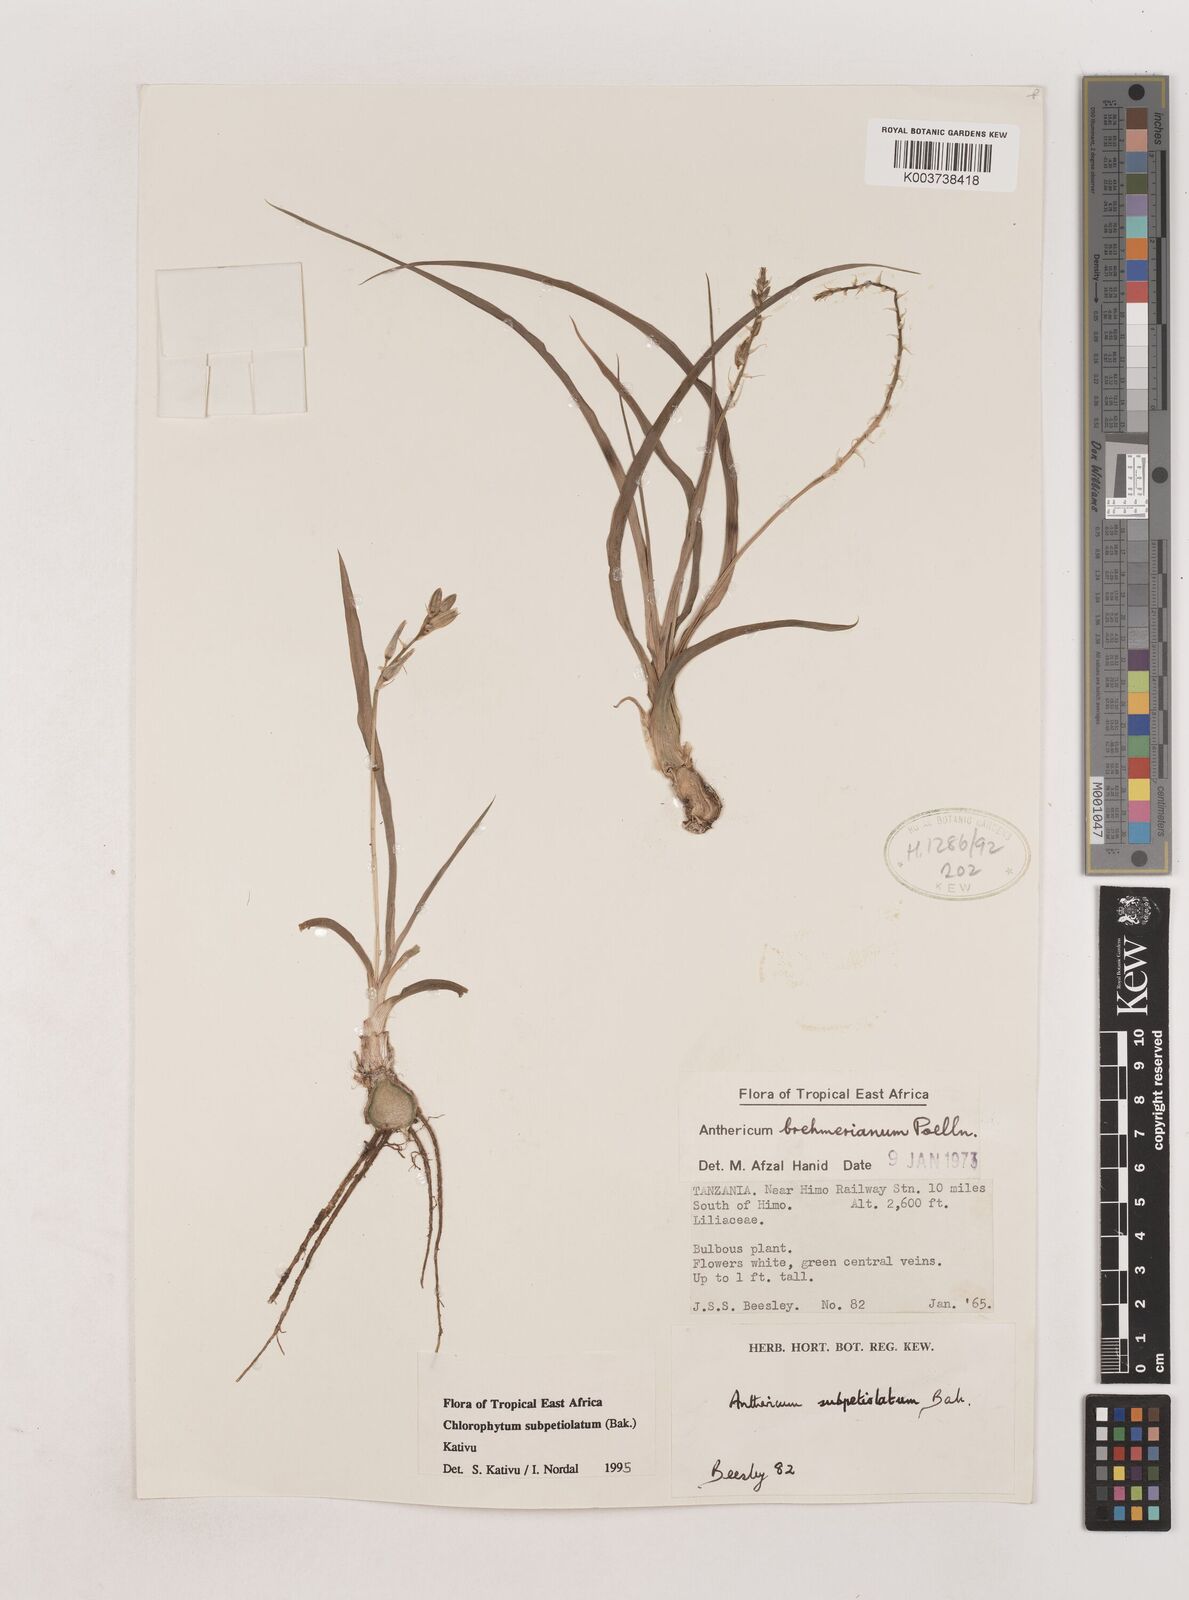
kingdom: Plantae
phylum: Tracheophyta
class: Liliopsida
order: Asparagales
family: Asparagaceae
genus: Chlorophytum
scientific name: Chlorophytum subpetiolatum
